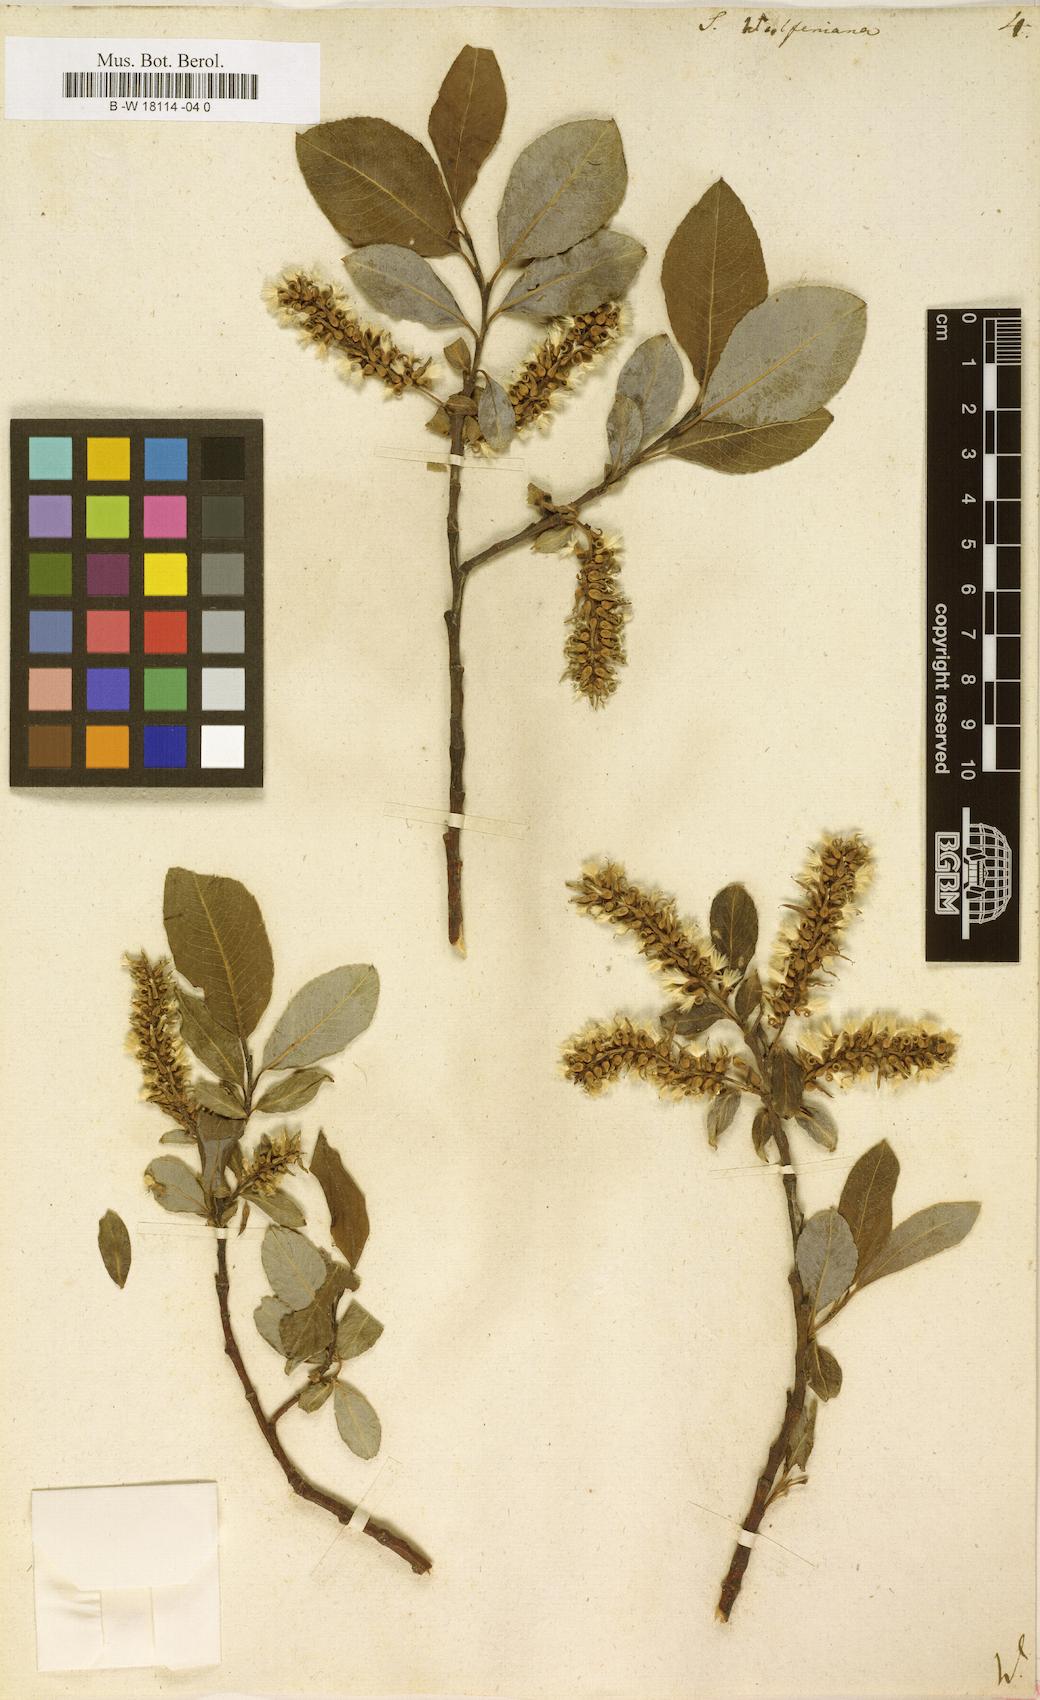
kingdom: Plantae
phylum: Tracheophyta
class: Magnoliopsida
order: Malpighiales
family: Salicaceae
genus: Salix
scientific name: Salix
